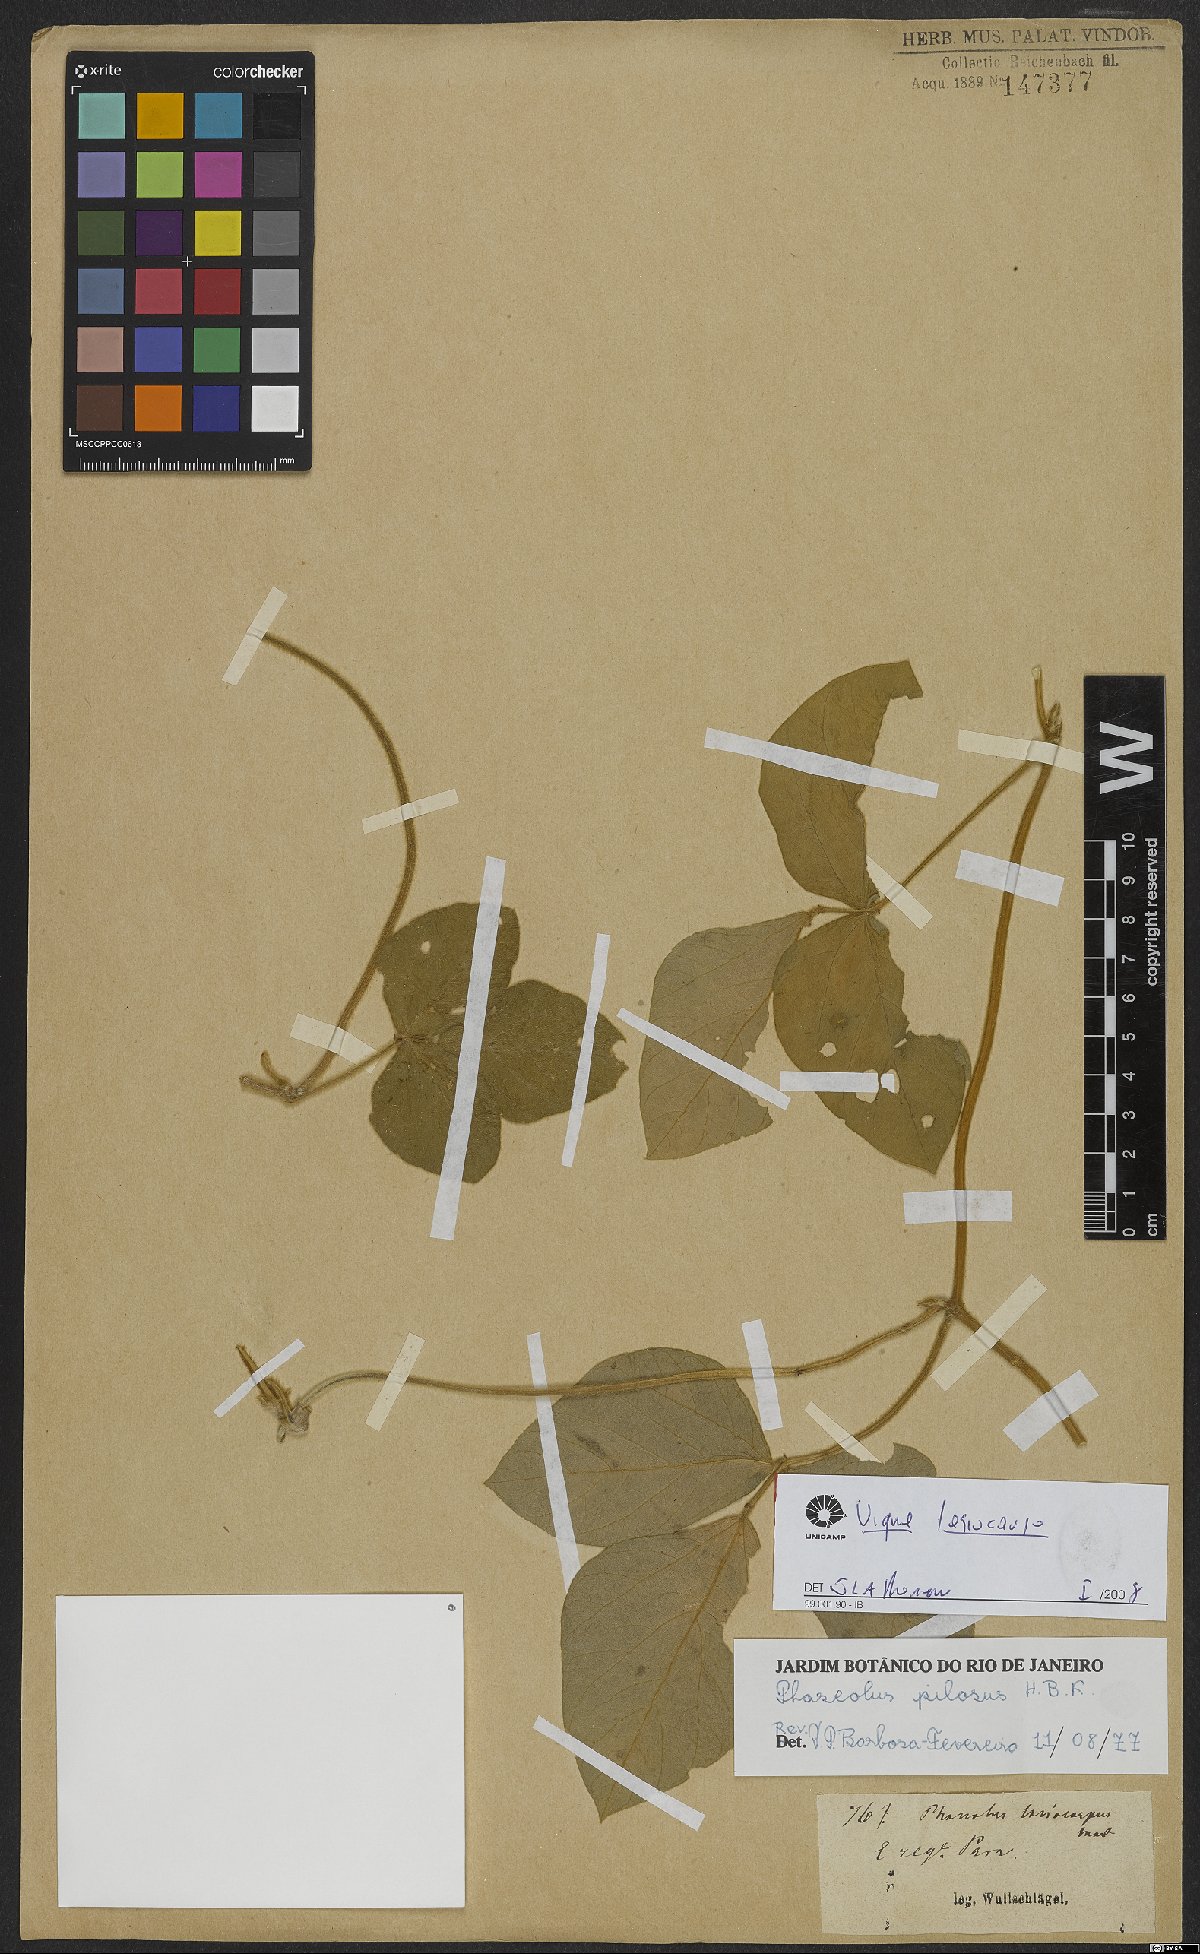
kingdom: Plantae
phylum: Tracheophyta
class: Magnoliopsida
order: Fabales
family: Fabaceae
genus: Vigna
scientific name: Vigna lasiocarpa
